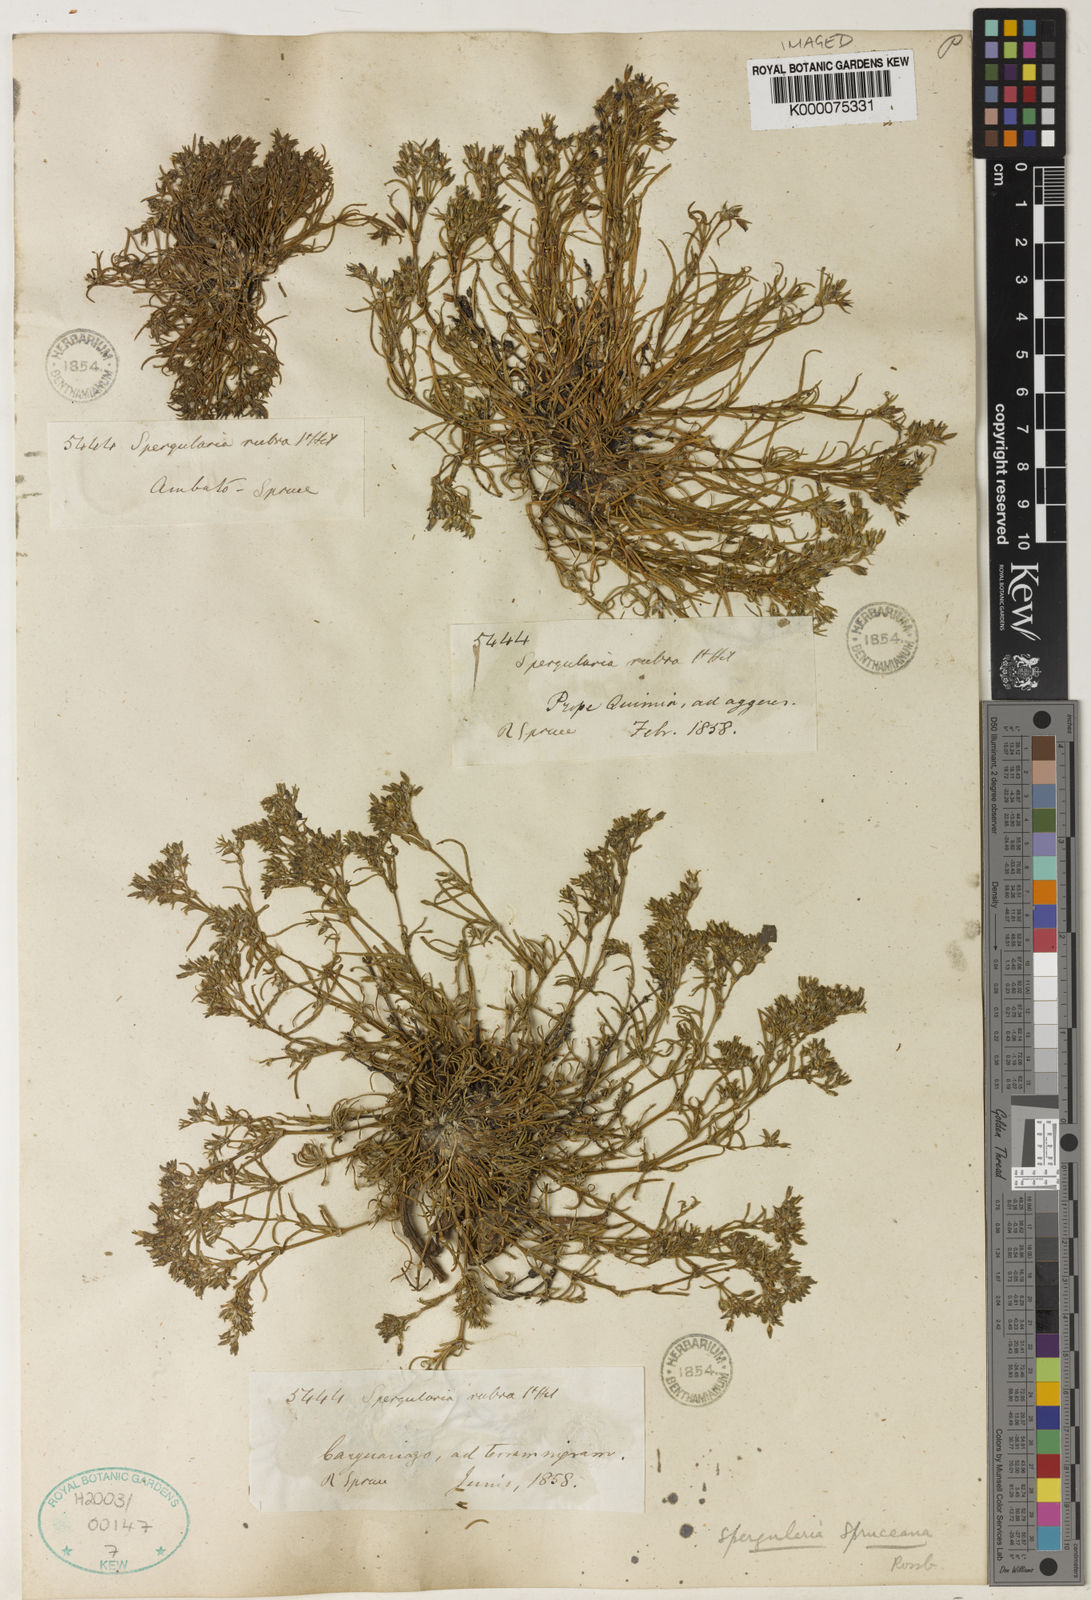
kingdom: Plantae
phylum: Tracheophyta
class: Magnoliopsida
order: Caryophyllales
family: Caryophyllaceae
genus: Spergularia
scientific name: Spergularia spruceana
